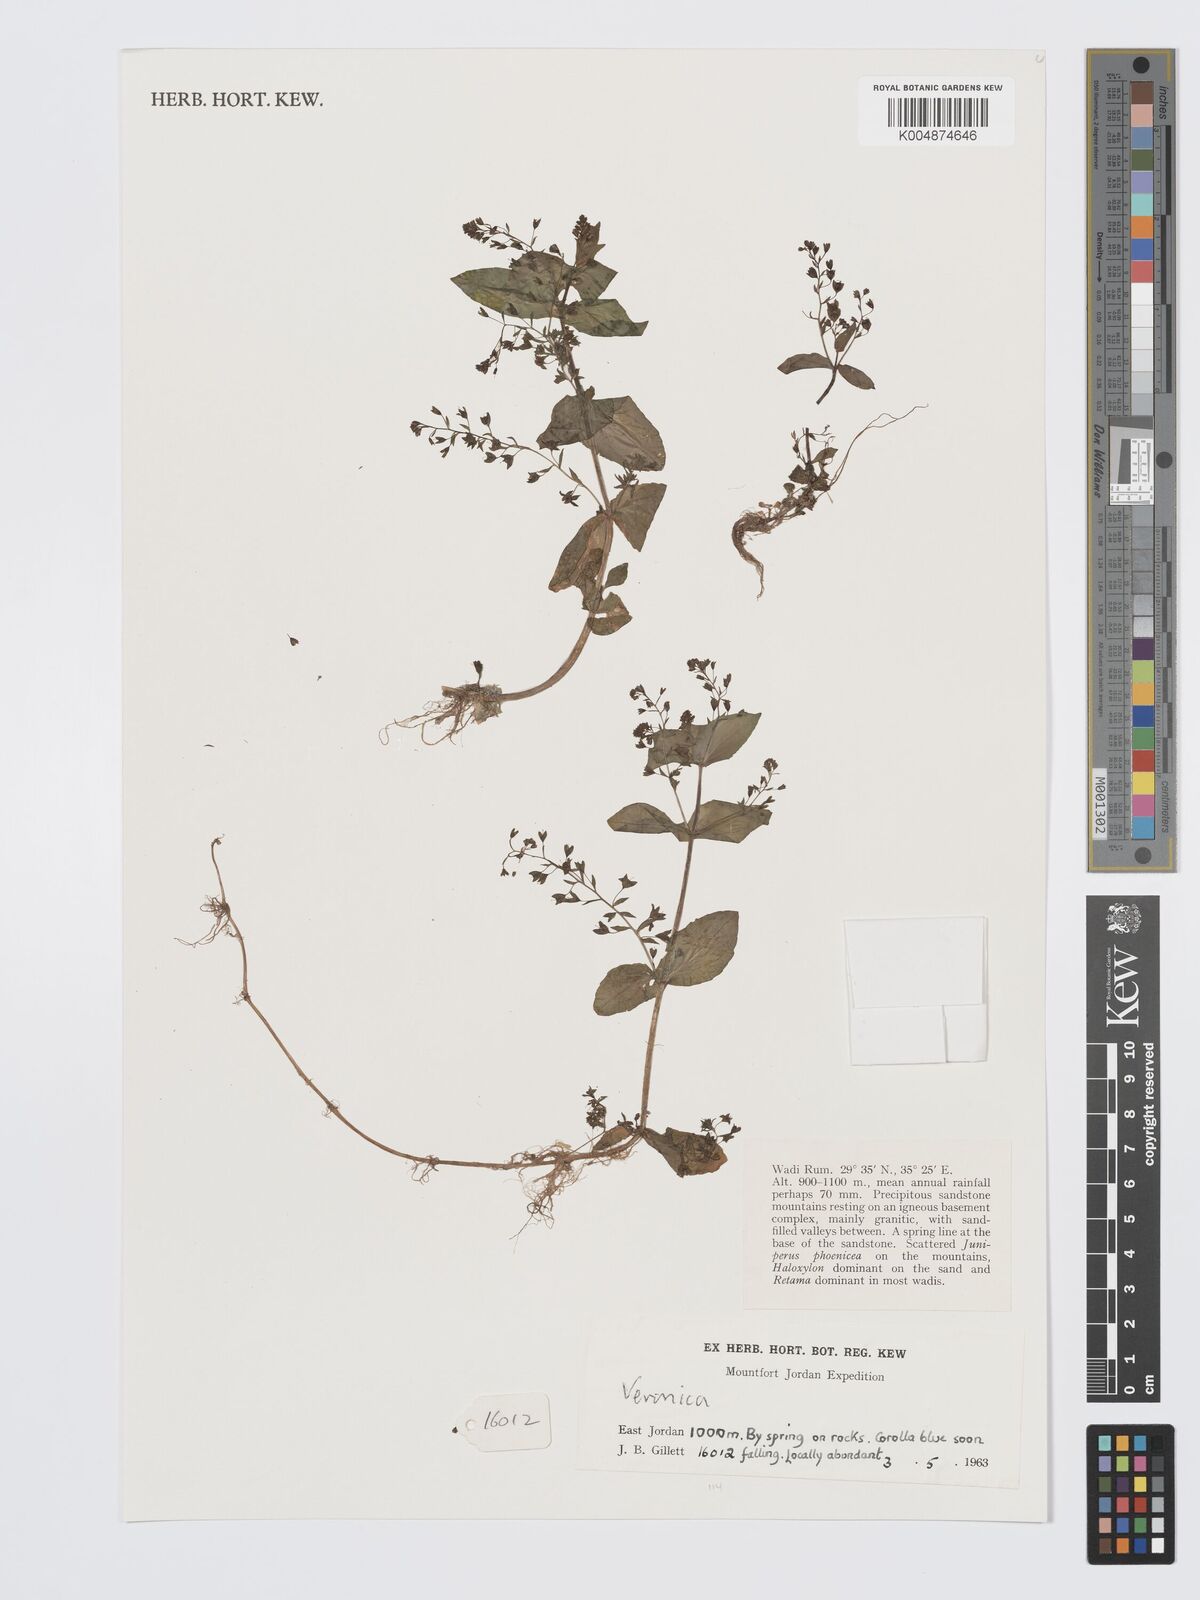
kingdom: Plantae
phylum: Tracheophyta
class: Magnoliopsida
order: Lamiales
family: Plantaginaceae
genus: Veronica
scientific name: Veronica
